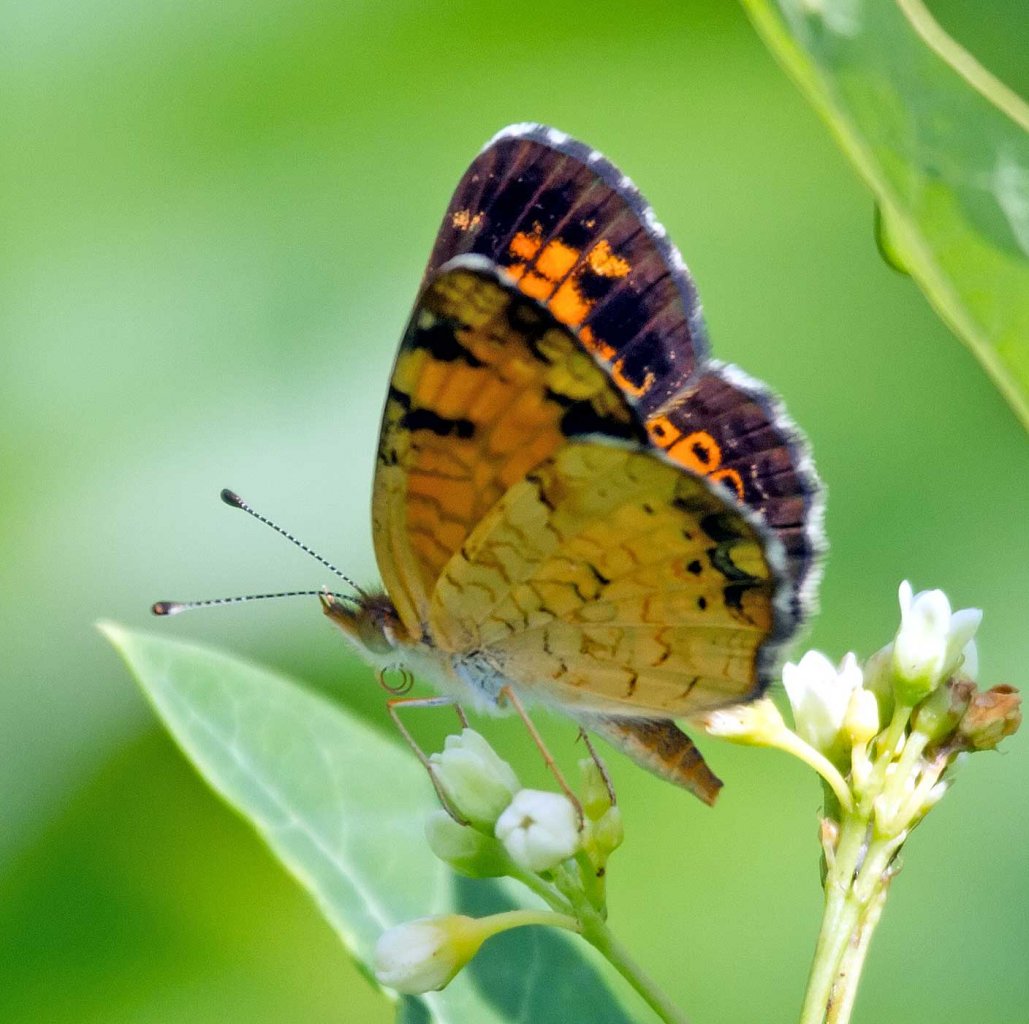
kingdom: Animalia
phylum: Arthropoda
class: Insecta
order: Lepidoptera
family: Nymphalidae
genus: Phyciodes
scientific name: Phyciodes tharos
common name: Pearl Crescent
